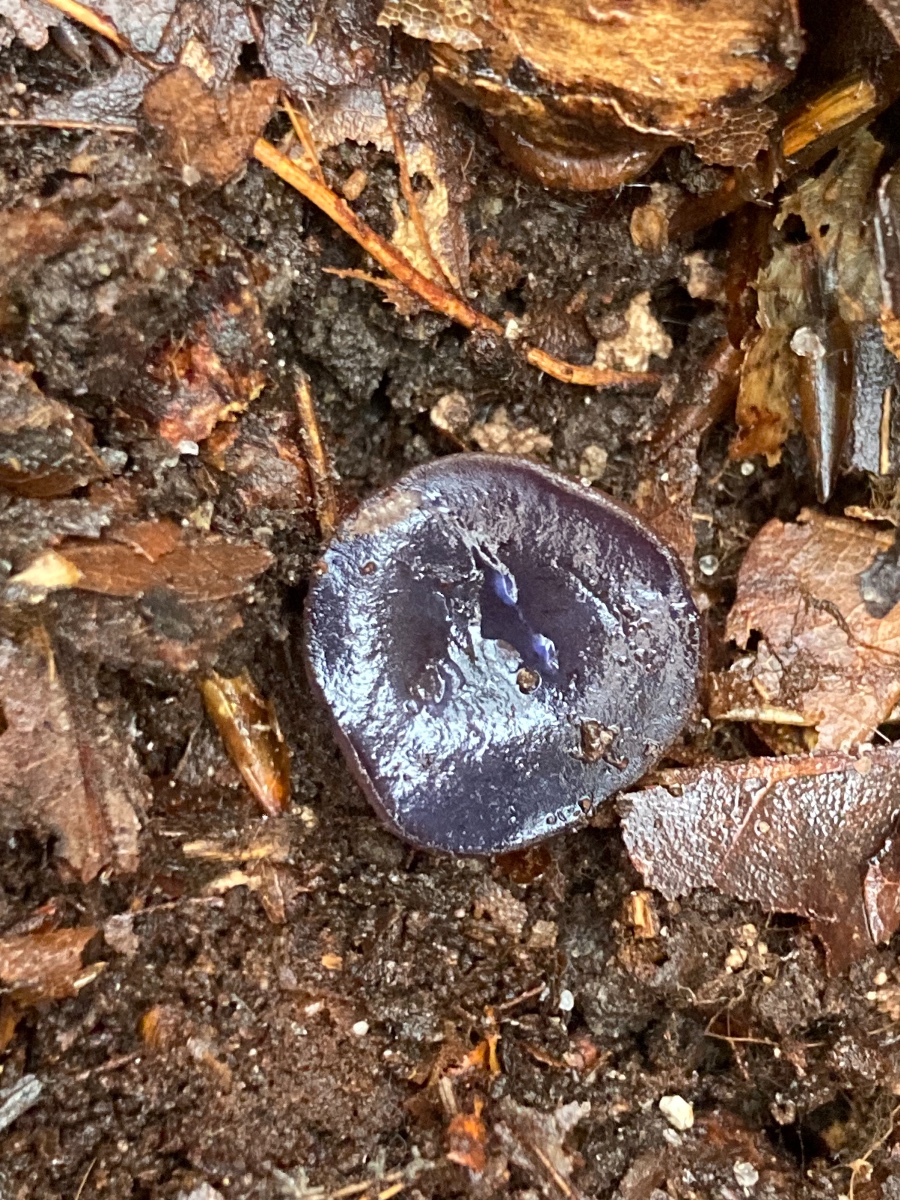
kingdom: Fungi
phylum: Ascomycota
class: Pezizomycetes
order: Pezizales
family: Pezizaceae
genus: Peziza
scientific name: Peziza saniosa
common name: blåmælket bægersvamp
